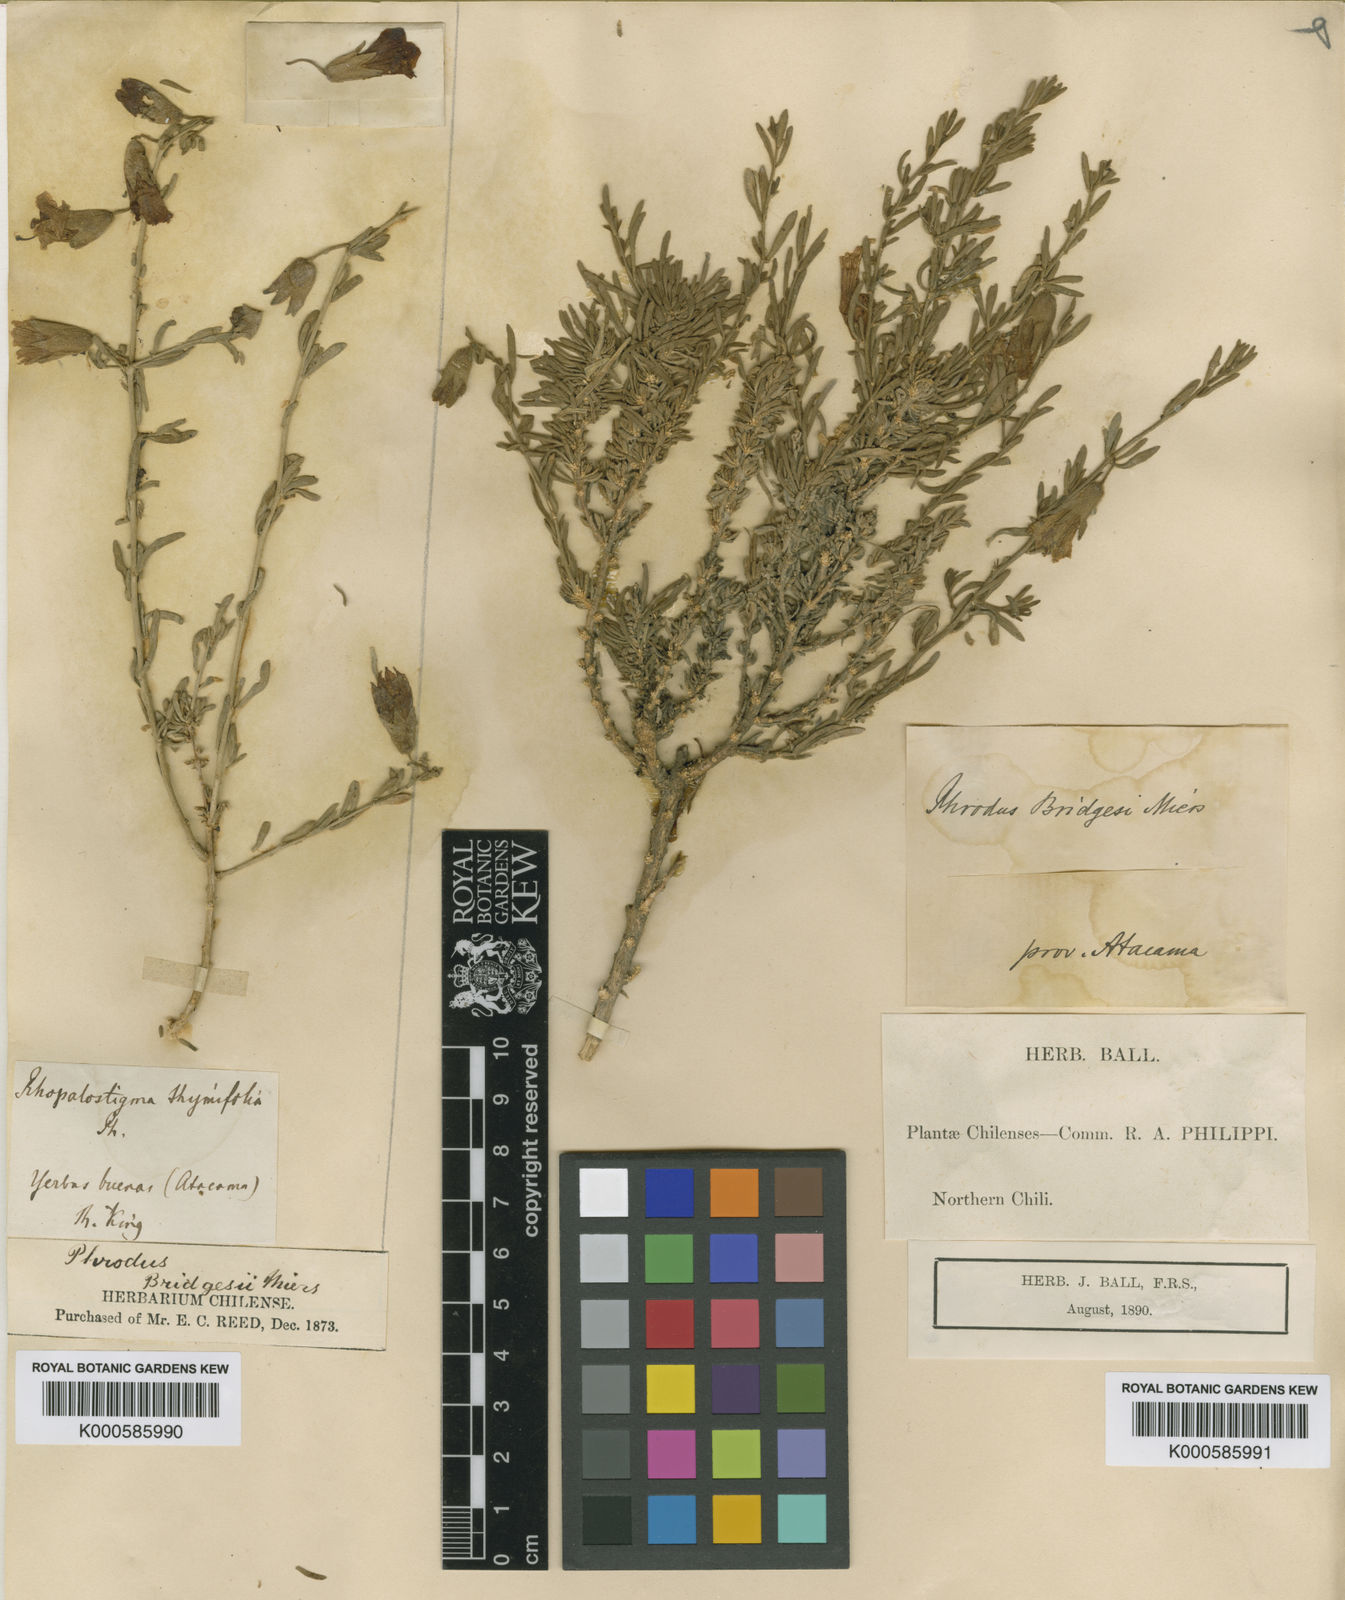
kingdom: Plantae
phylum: Tracheophyta
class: Magnoliopsida
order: Solanales
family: Solanaceae
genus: Lycium
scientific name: Lycium bridgesii
